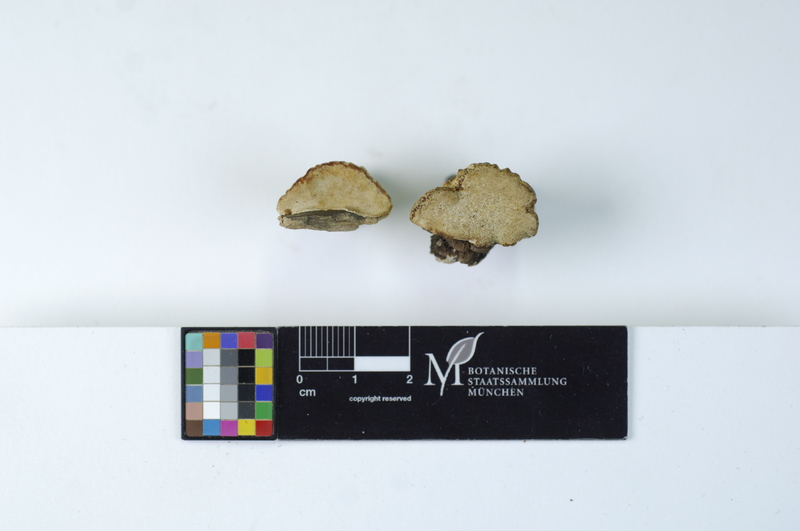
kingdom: Plantae
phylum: Tracheophyta
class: Magnoliopsida
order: Myrtales
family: Myrtaceae
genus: Eucalyptus
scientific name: Eucalyptus
